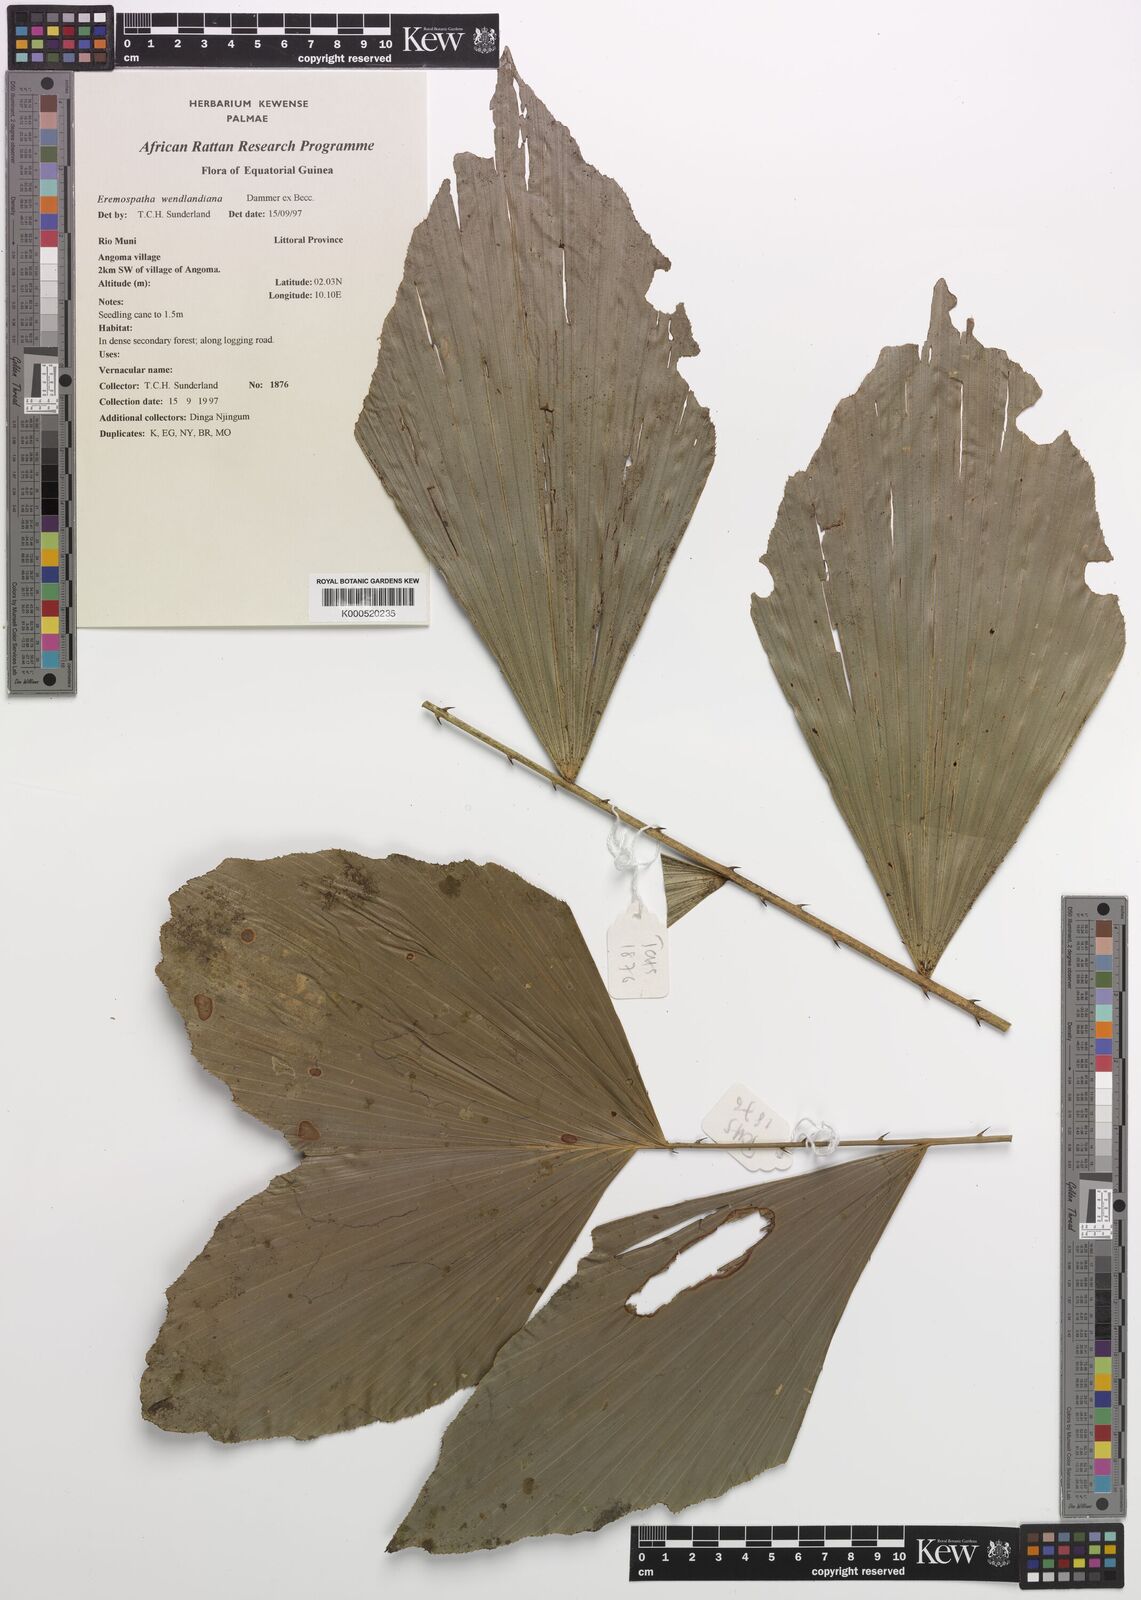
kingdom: Plantae
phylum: Tracheophyta
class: Liliopsida
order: Arecales
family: Arecaceae
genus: Eremospatha
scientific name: Eremospatha wendlandiana
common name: Rattan
